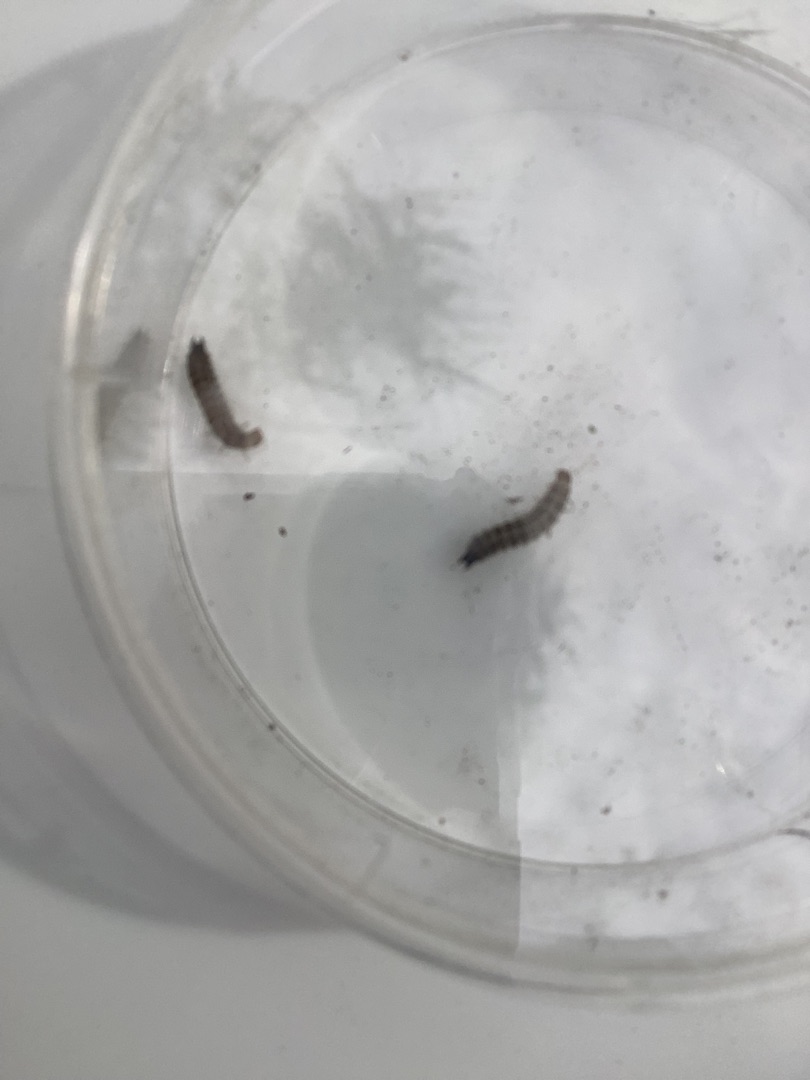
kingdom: Animalia
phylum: Arthropoda
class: Insecta
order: Coleoptera
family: Dasytidae
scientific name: Dasytidae
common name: Malakitbiller
